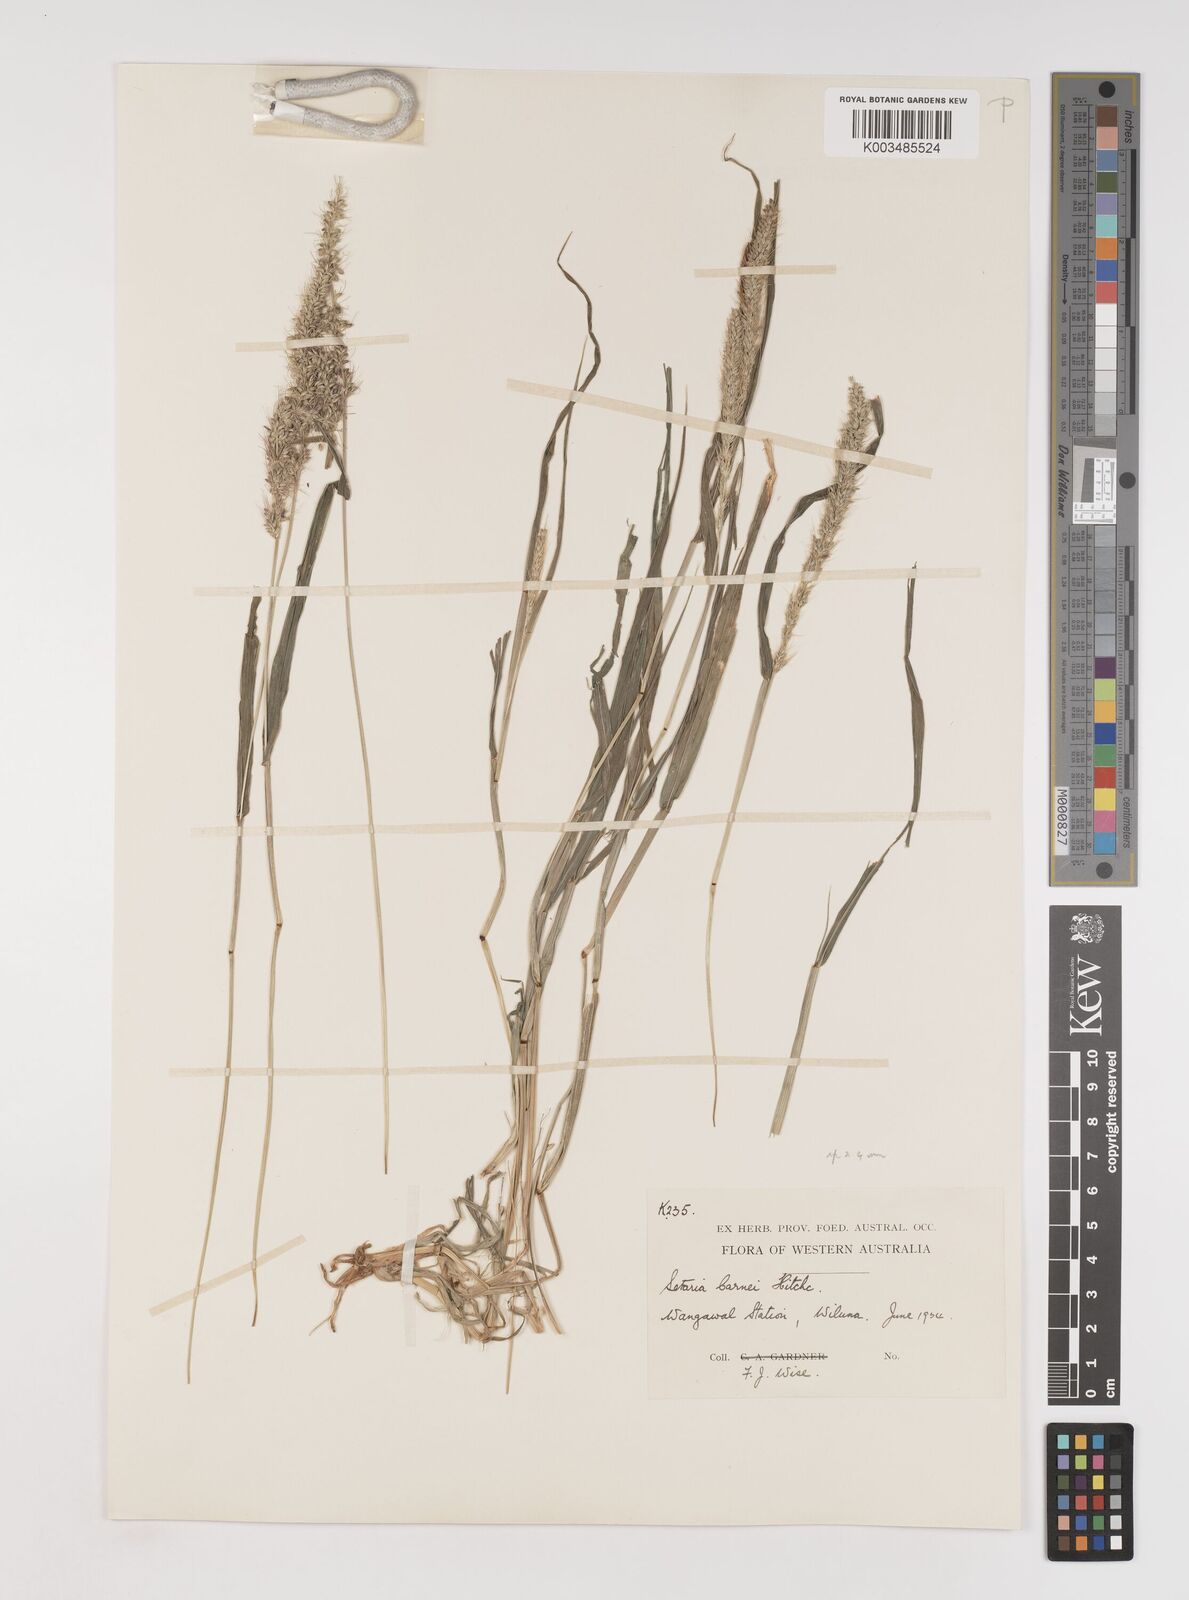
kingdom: Plantae
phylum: Tracheophyta
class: Liliopsida
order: Poales
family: Poaceae
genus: Setaria
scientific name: Setaria verticillata
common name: Hooked bristlegrass
